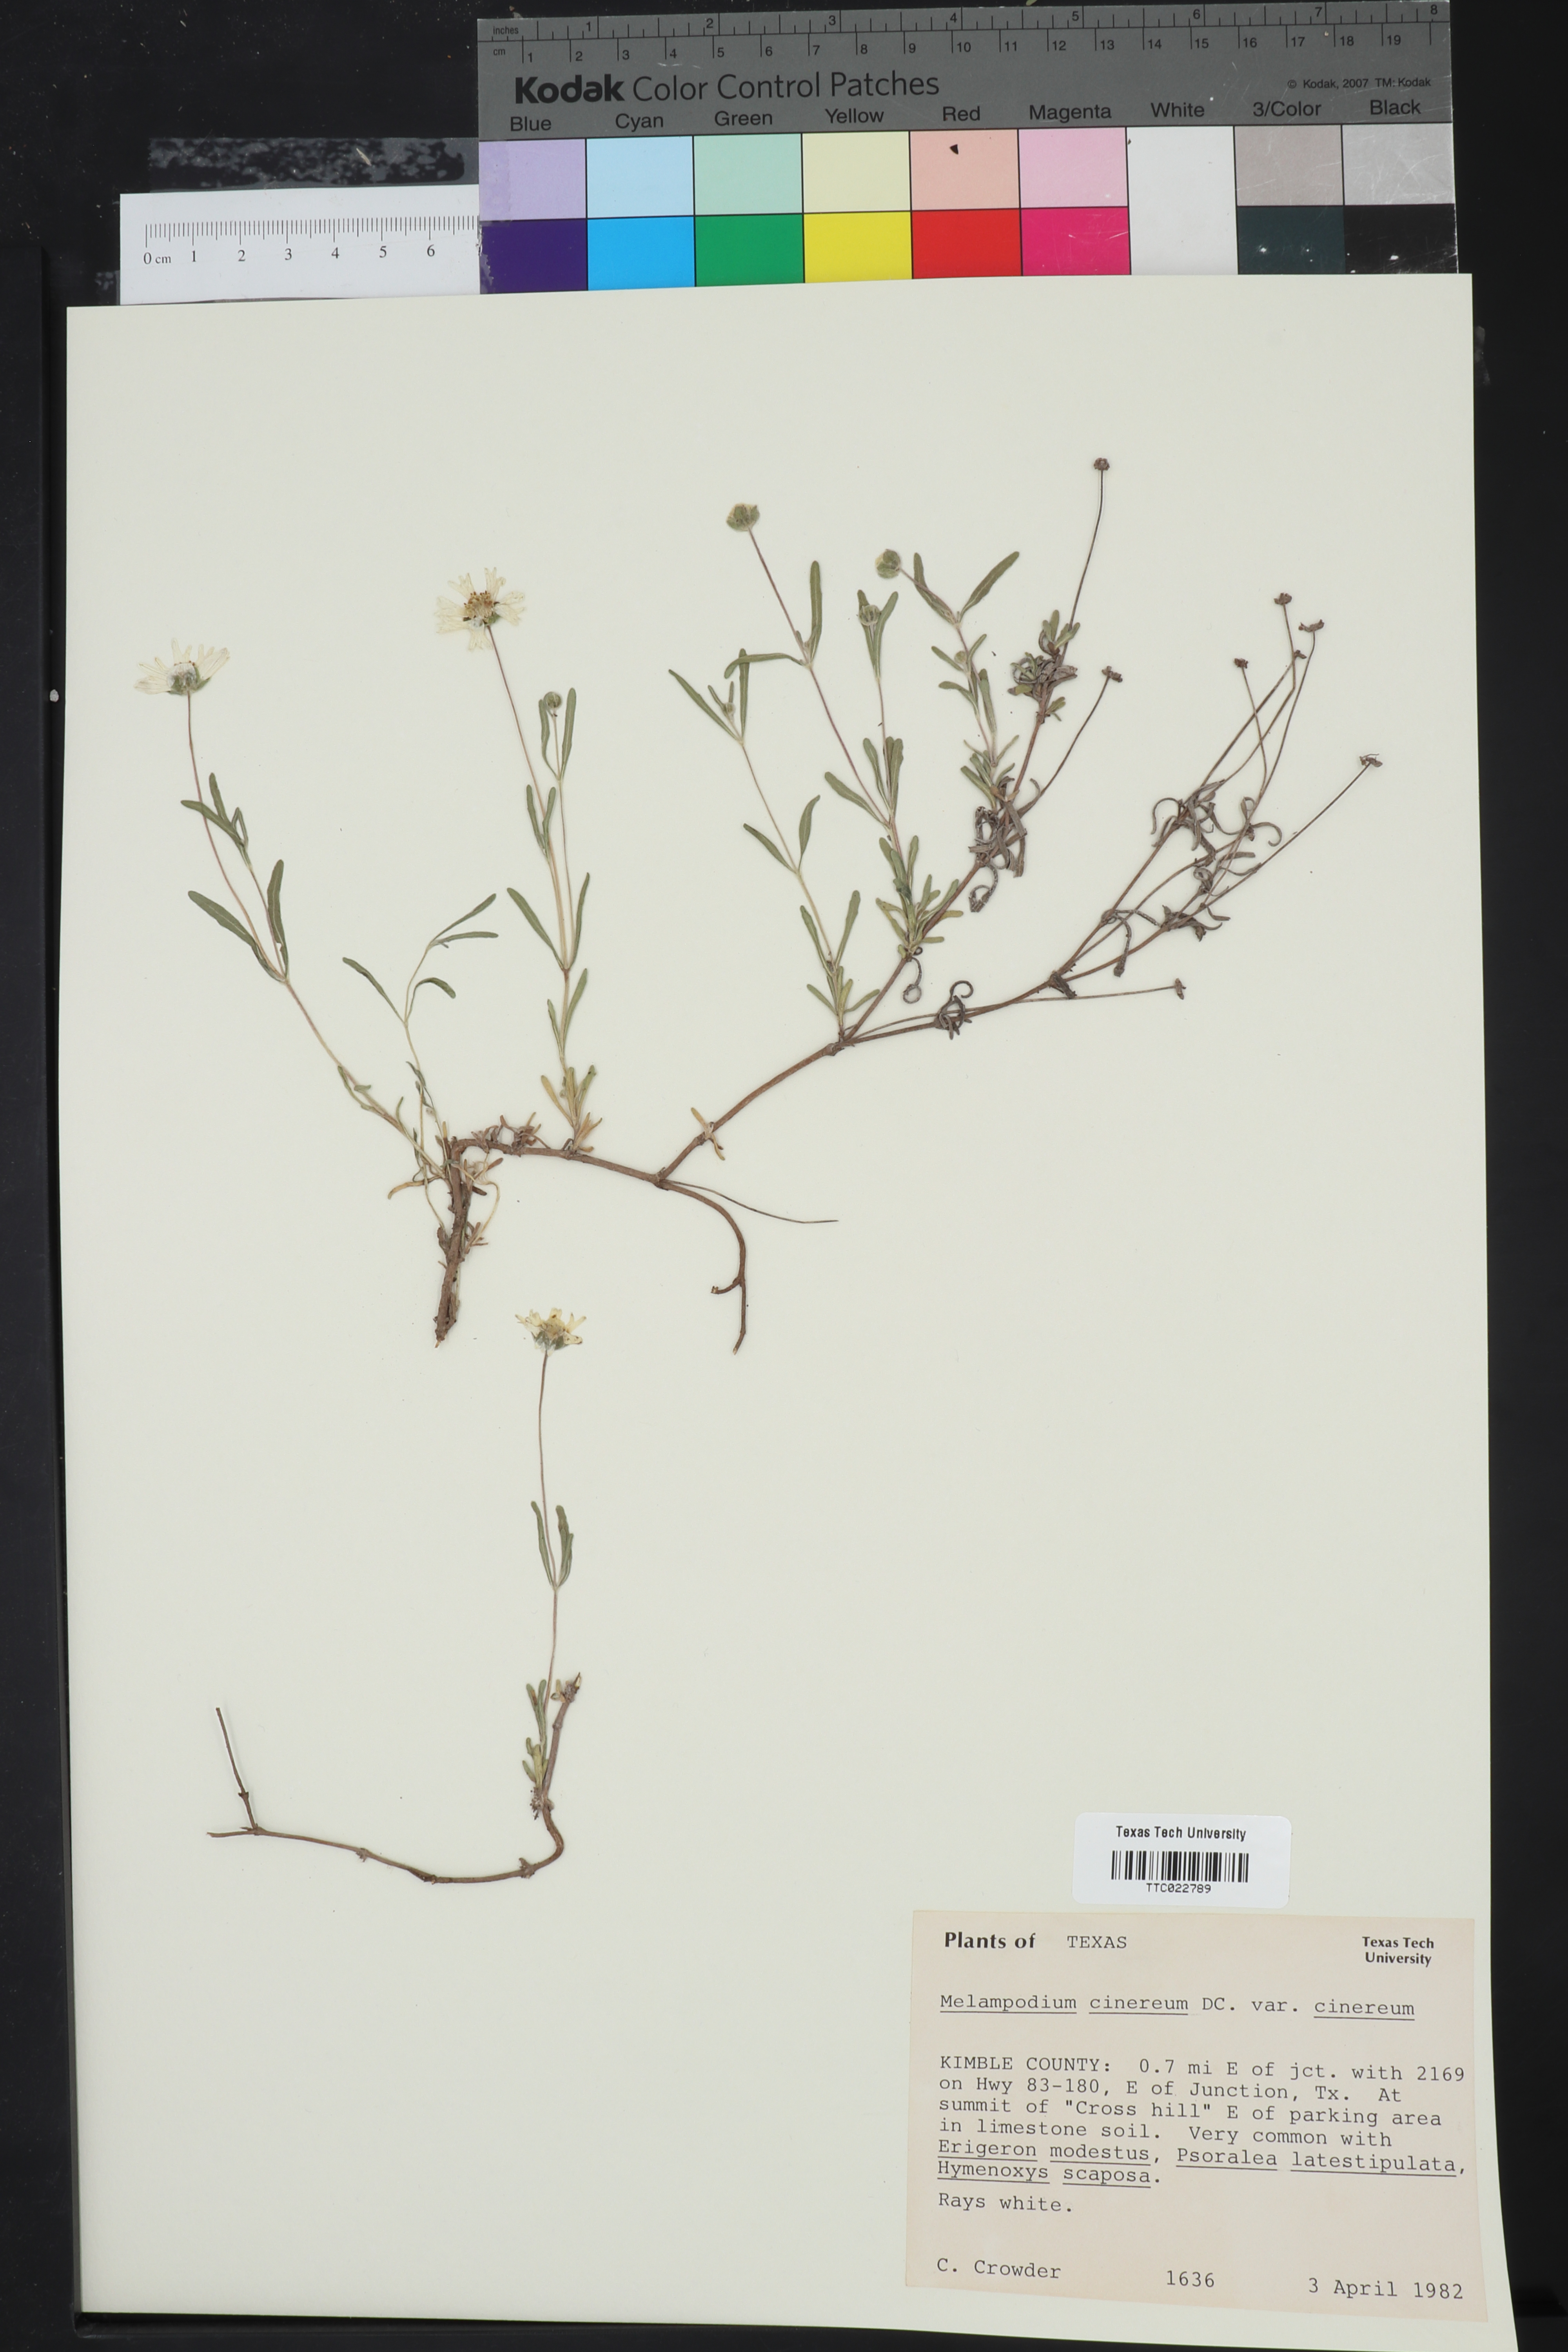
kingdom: Plantae
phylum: Tracheophyta
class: Magnoliopsida
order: Asterales
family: Asteraceae
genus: Melampodium
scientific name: Melampodium cinereum
